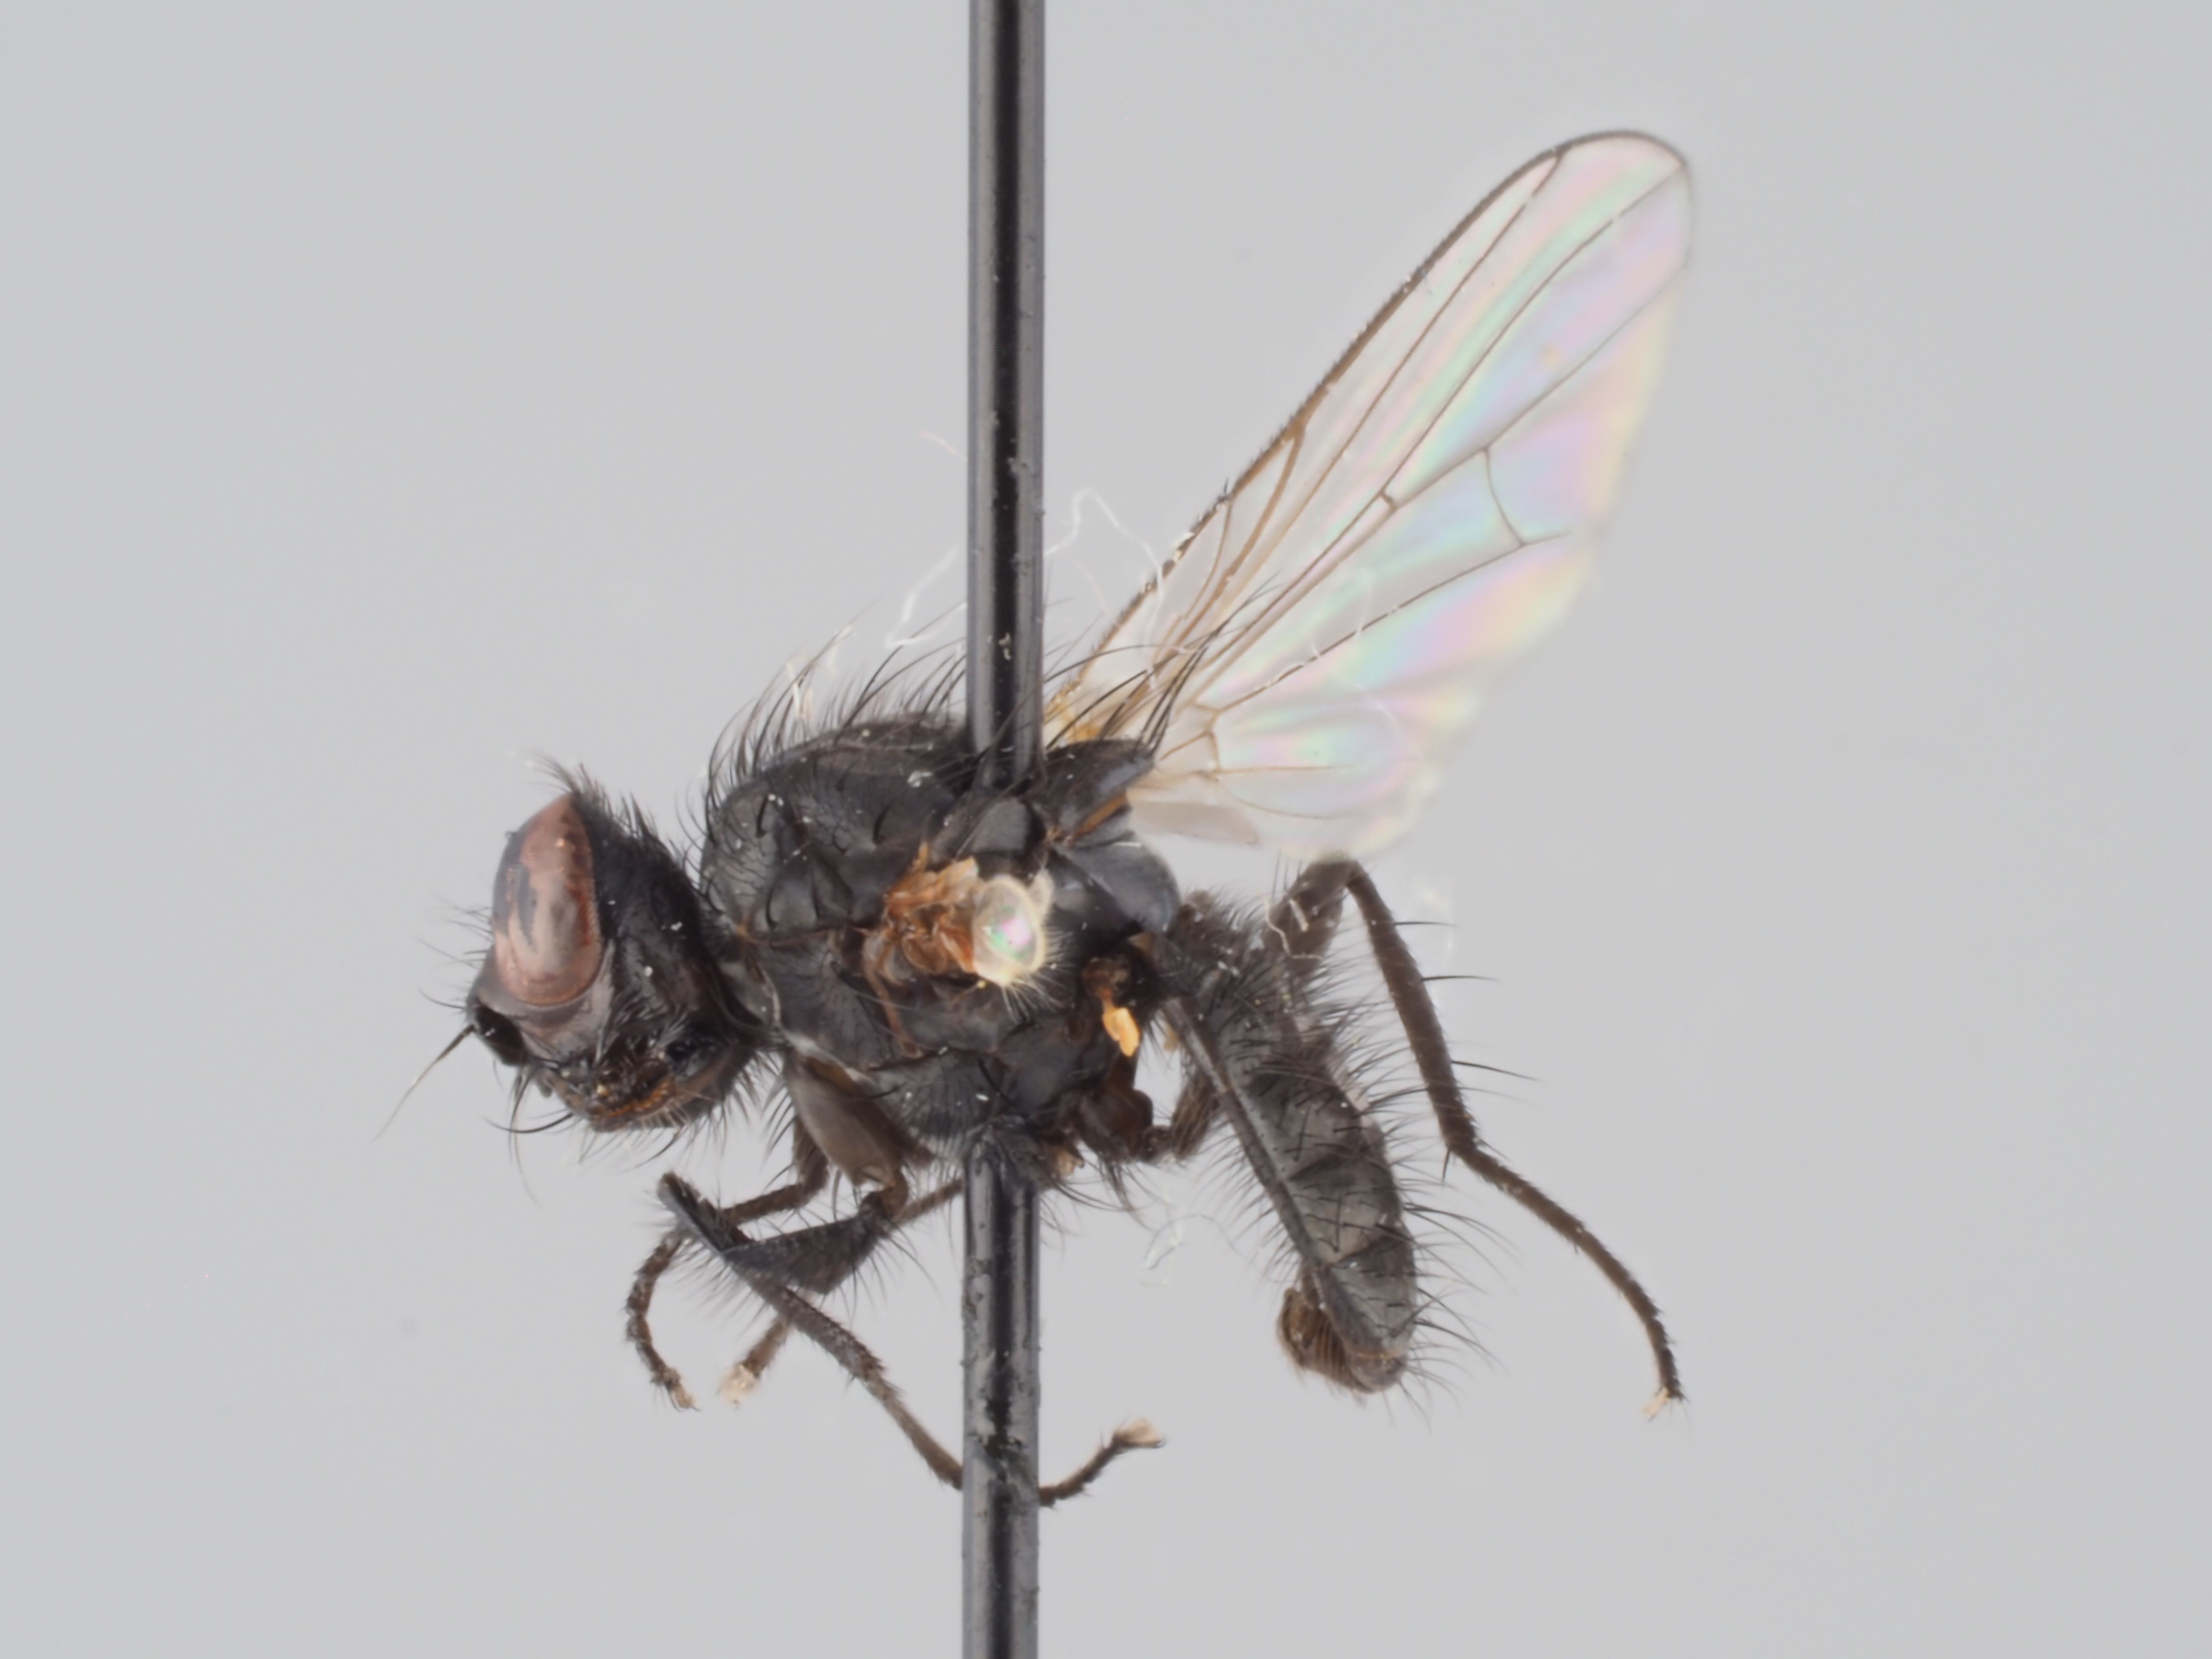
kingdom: Animalia
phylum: Arthropoda
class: Insecta
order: Diptera
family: Anthomyiidae
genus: Botanophila
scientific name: Botanophila laterella
